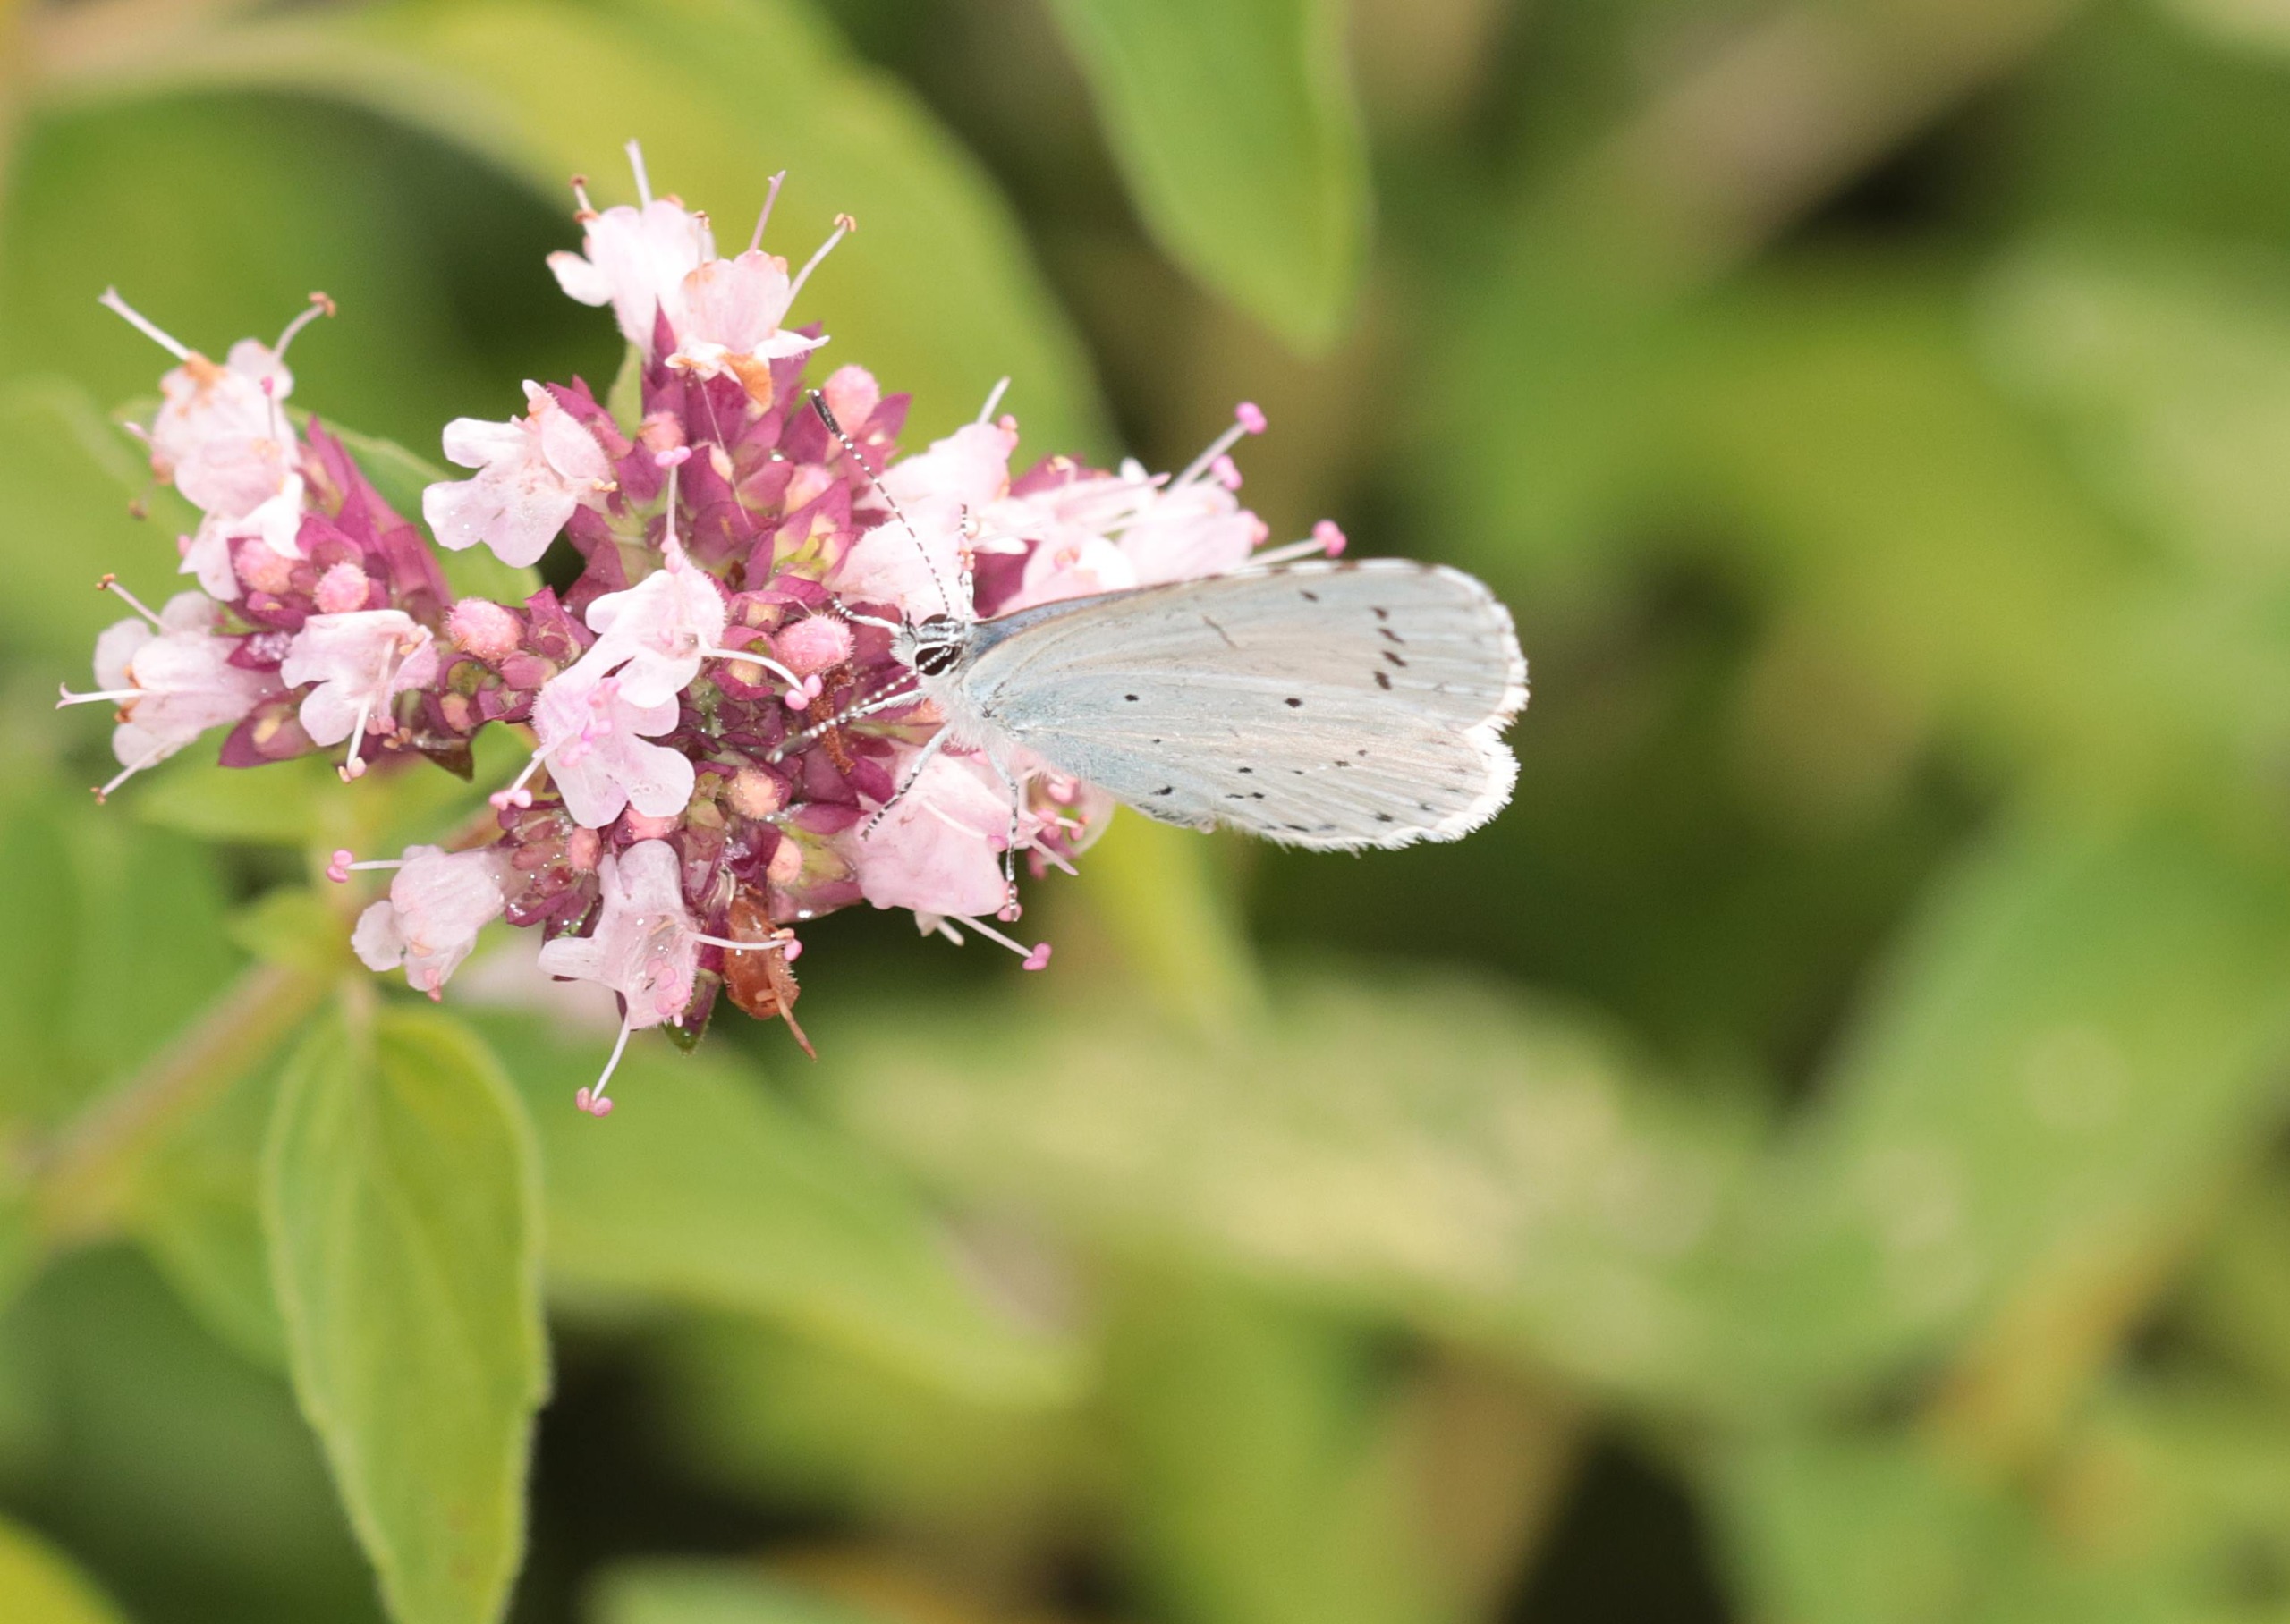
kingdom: Animalia
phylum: Arthropoda
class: Insecta
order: Lepidoptera
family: Lycaenidae
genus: Celastrina
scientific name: Celastrina argiolus
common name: Skovblåfugl
